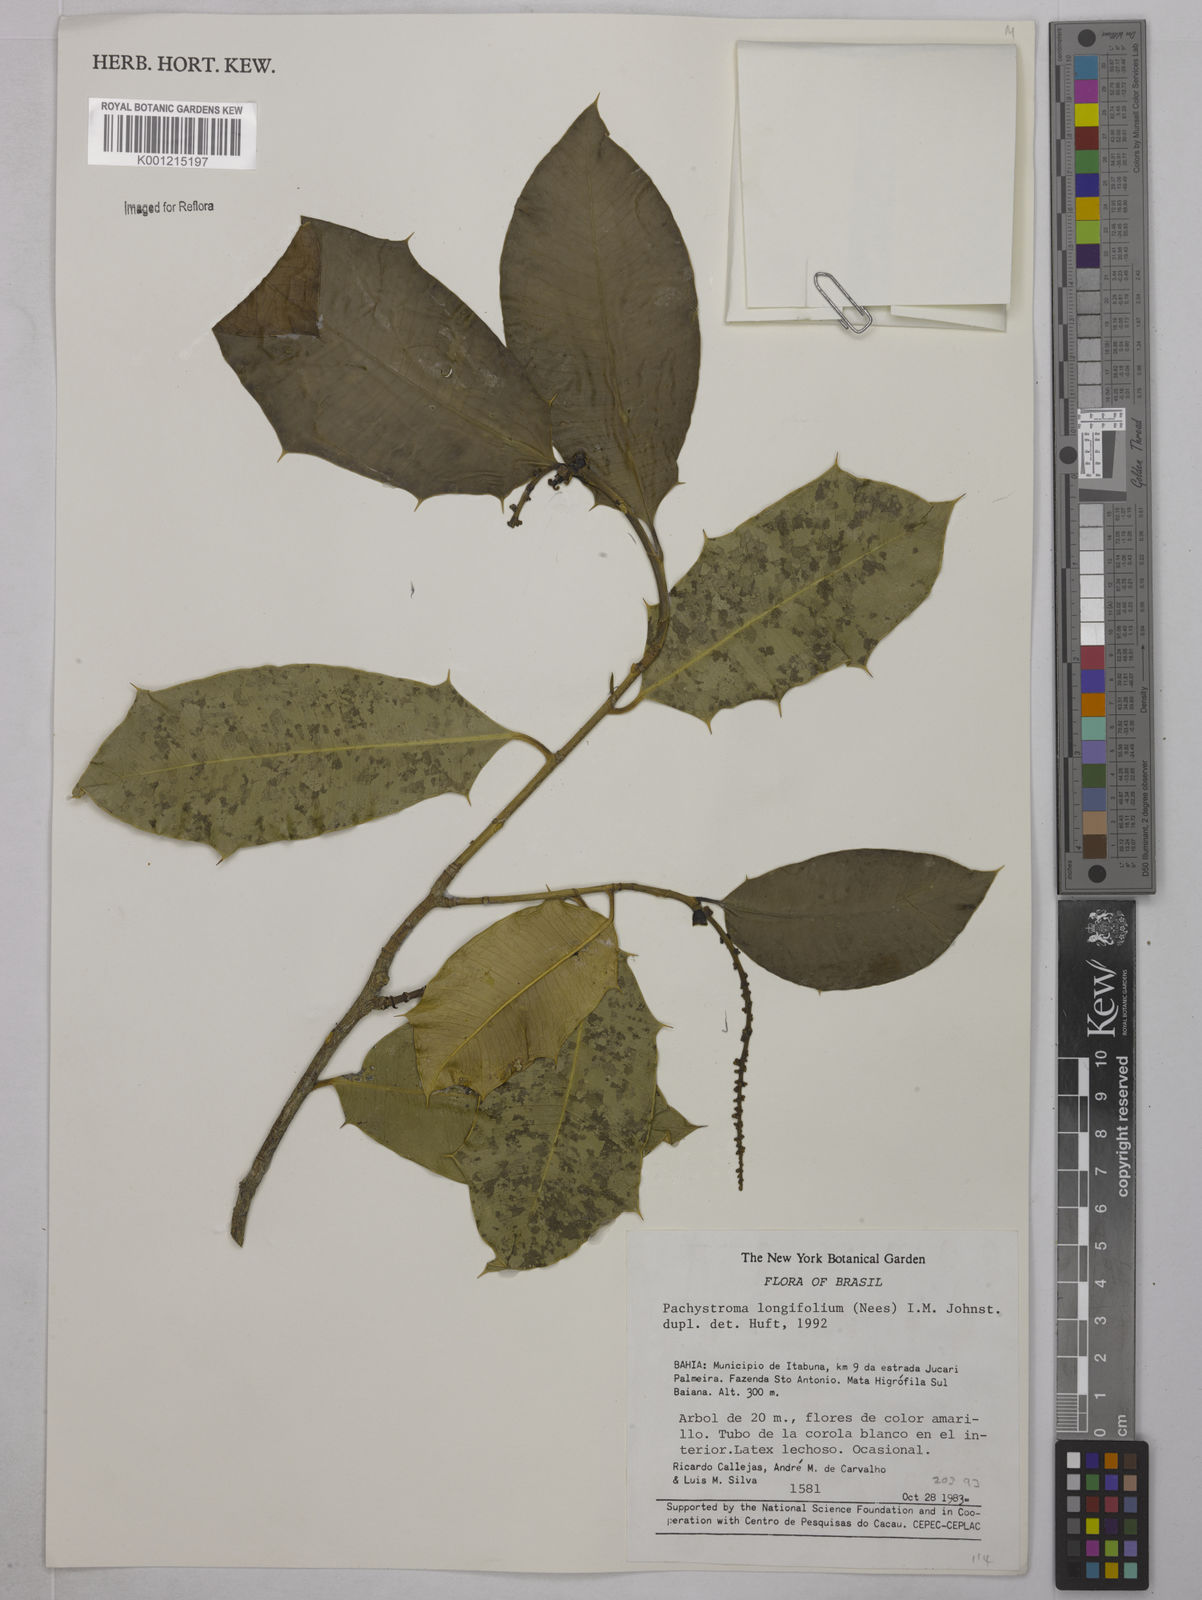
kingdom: Plantae
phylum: Tracheophyta
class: Magnoliopsida
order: Malpighiales
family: Euphorbiaceae
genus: Pachystroma
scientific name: Pachystroma longifolium
